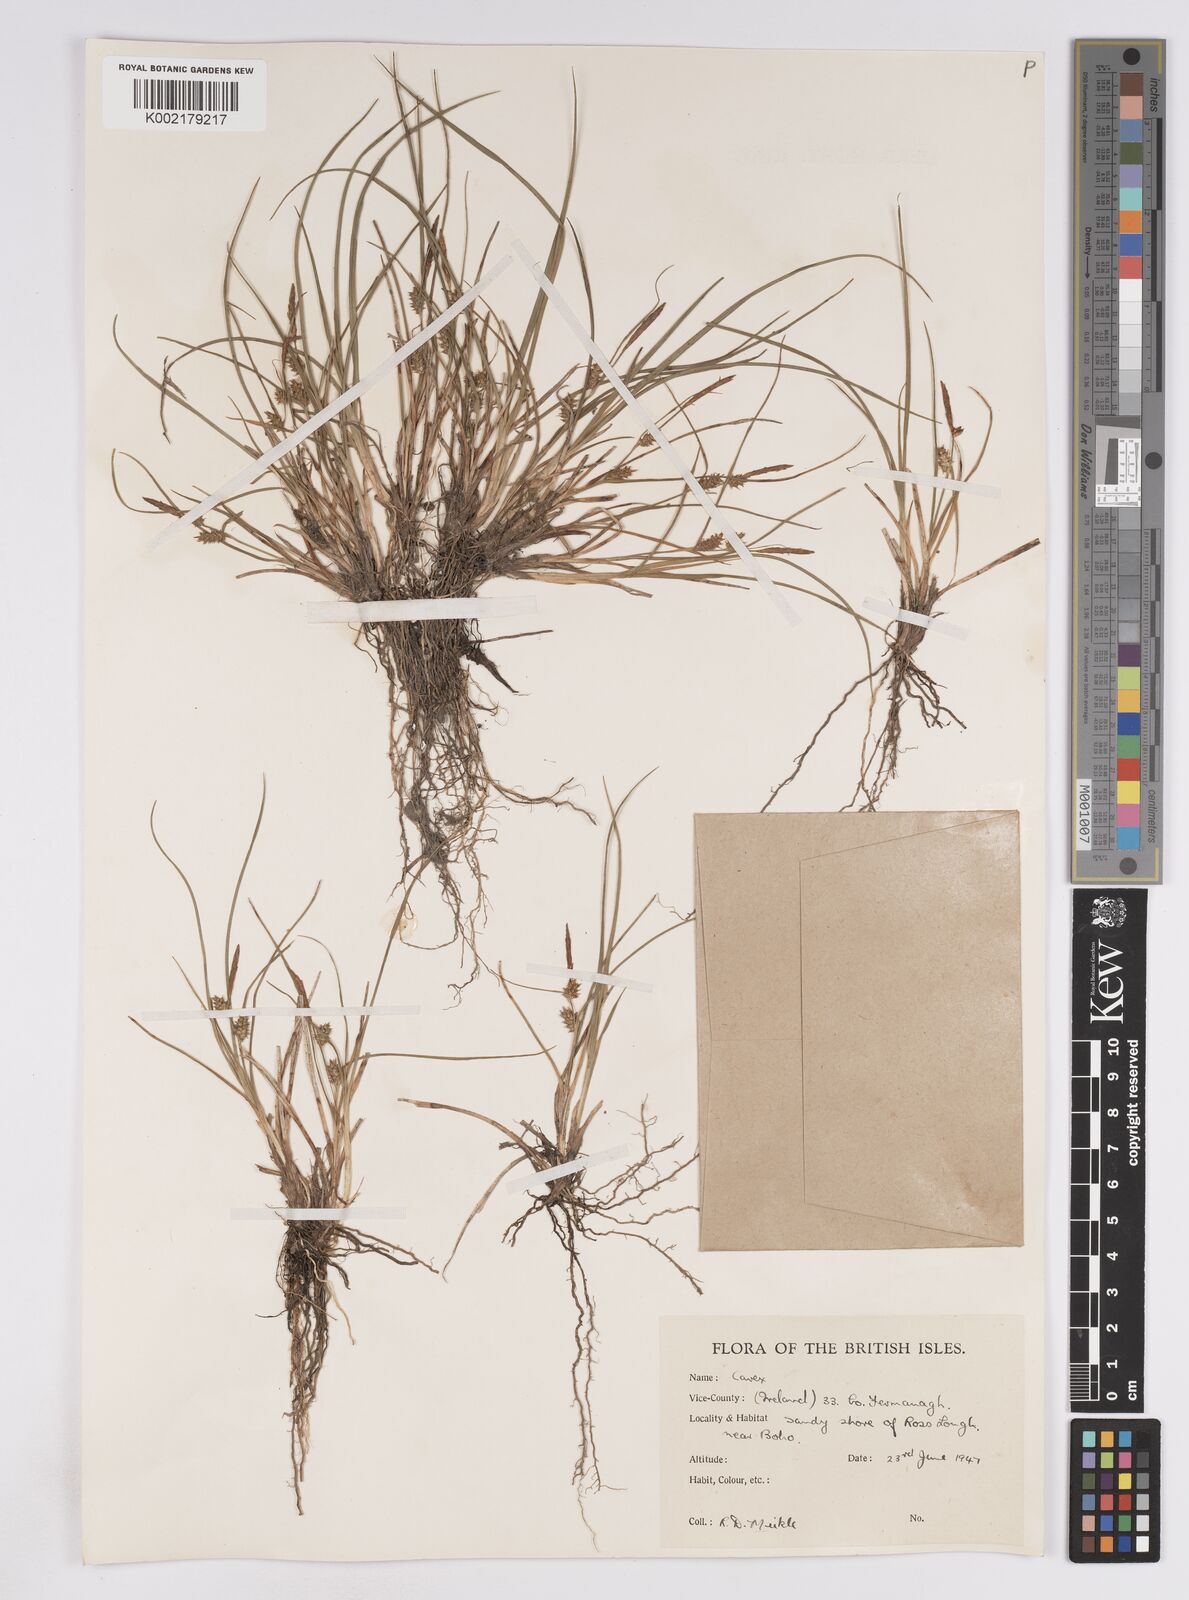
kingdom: Plantae
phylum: Tracheophyta
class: Liliopsida
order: Poales
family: Cyperaceae
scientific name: Cyperaceae
